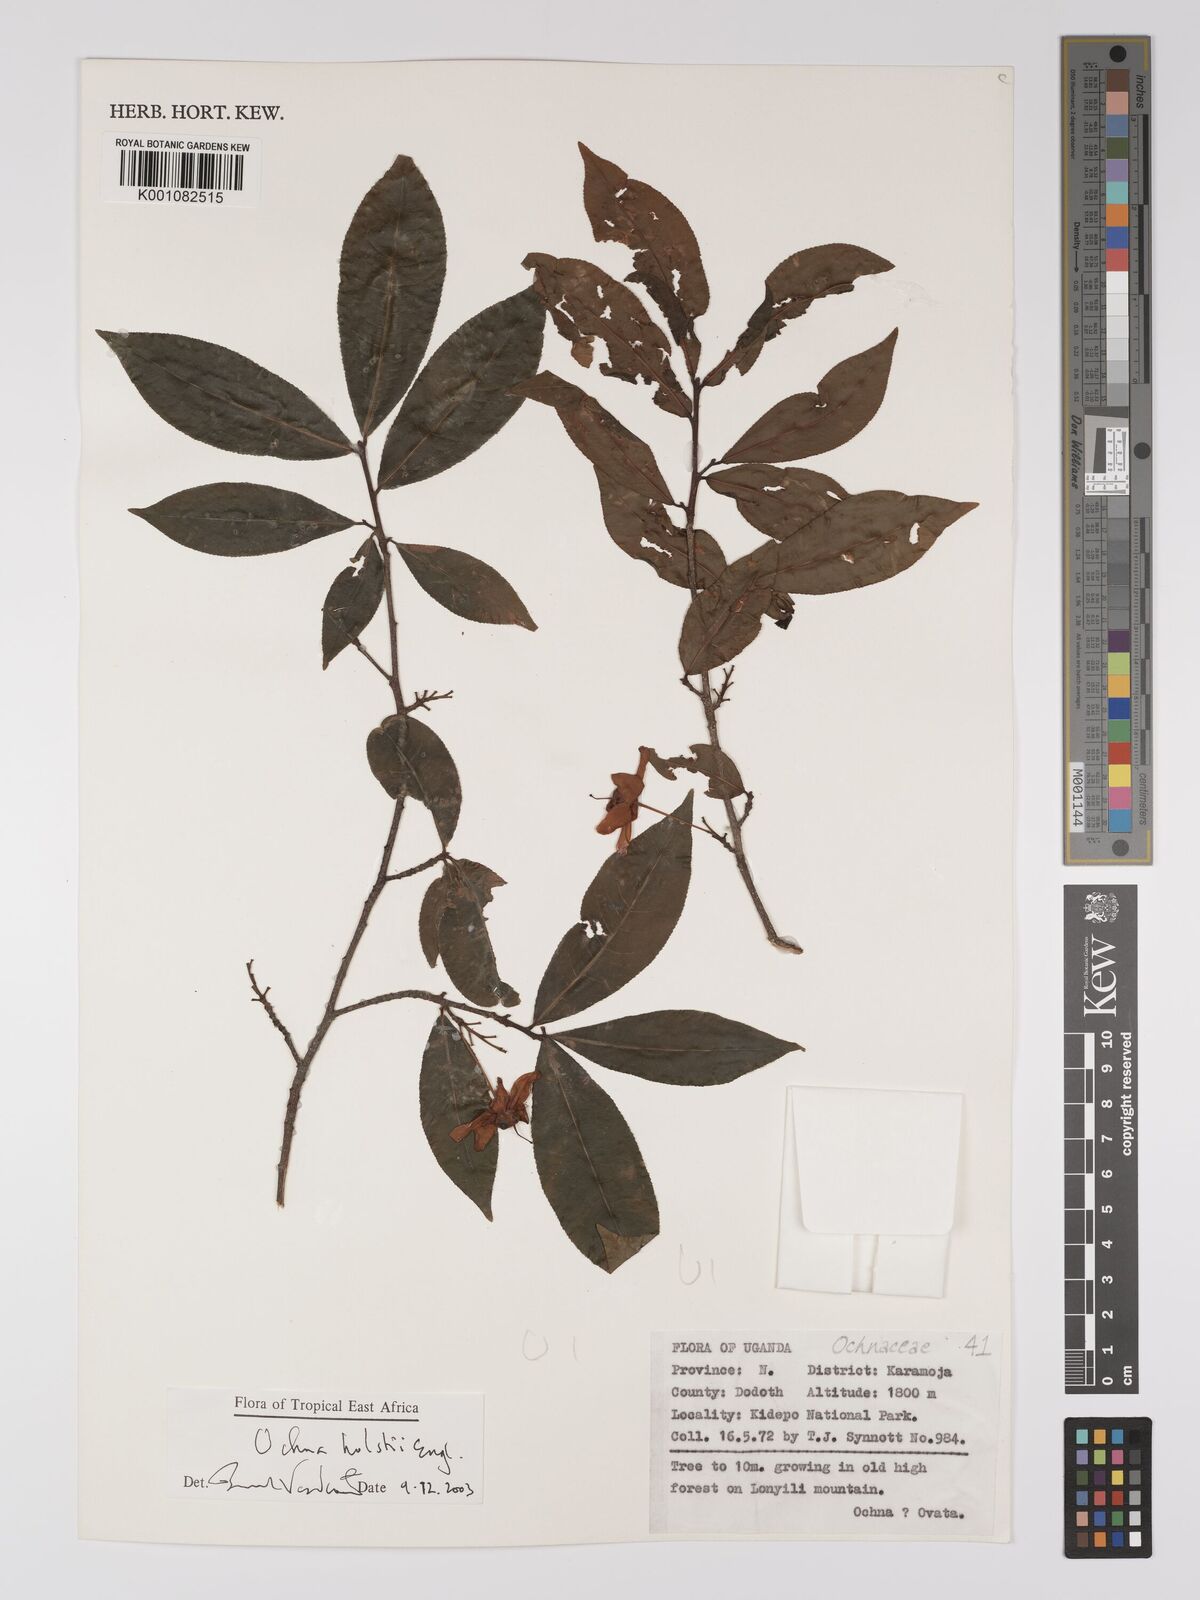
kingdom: Plantae
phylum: Tracheophyta
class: Magnoliopsida
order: Malpighiales
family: Ochnaceae
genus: Ochna
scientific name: Ochna holstii
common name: Red ironwood
